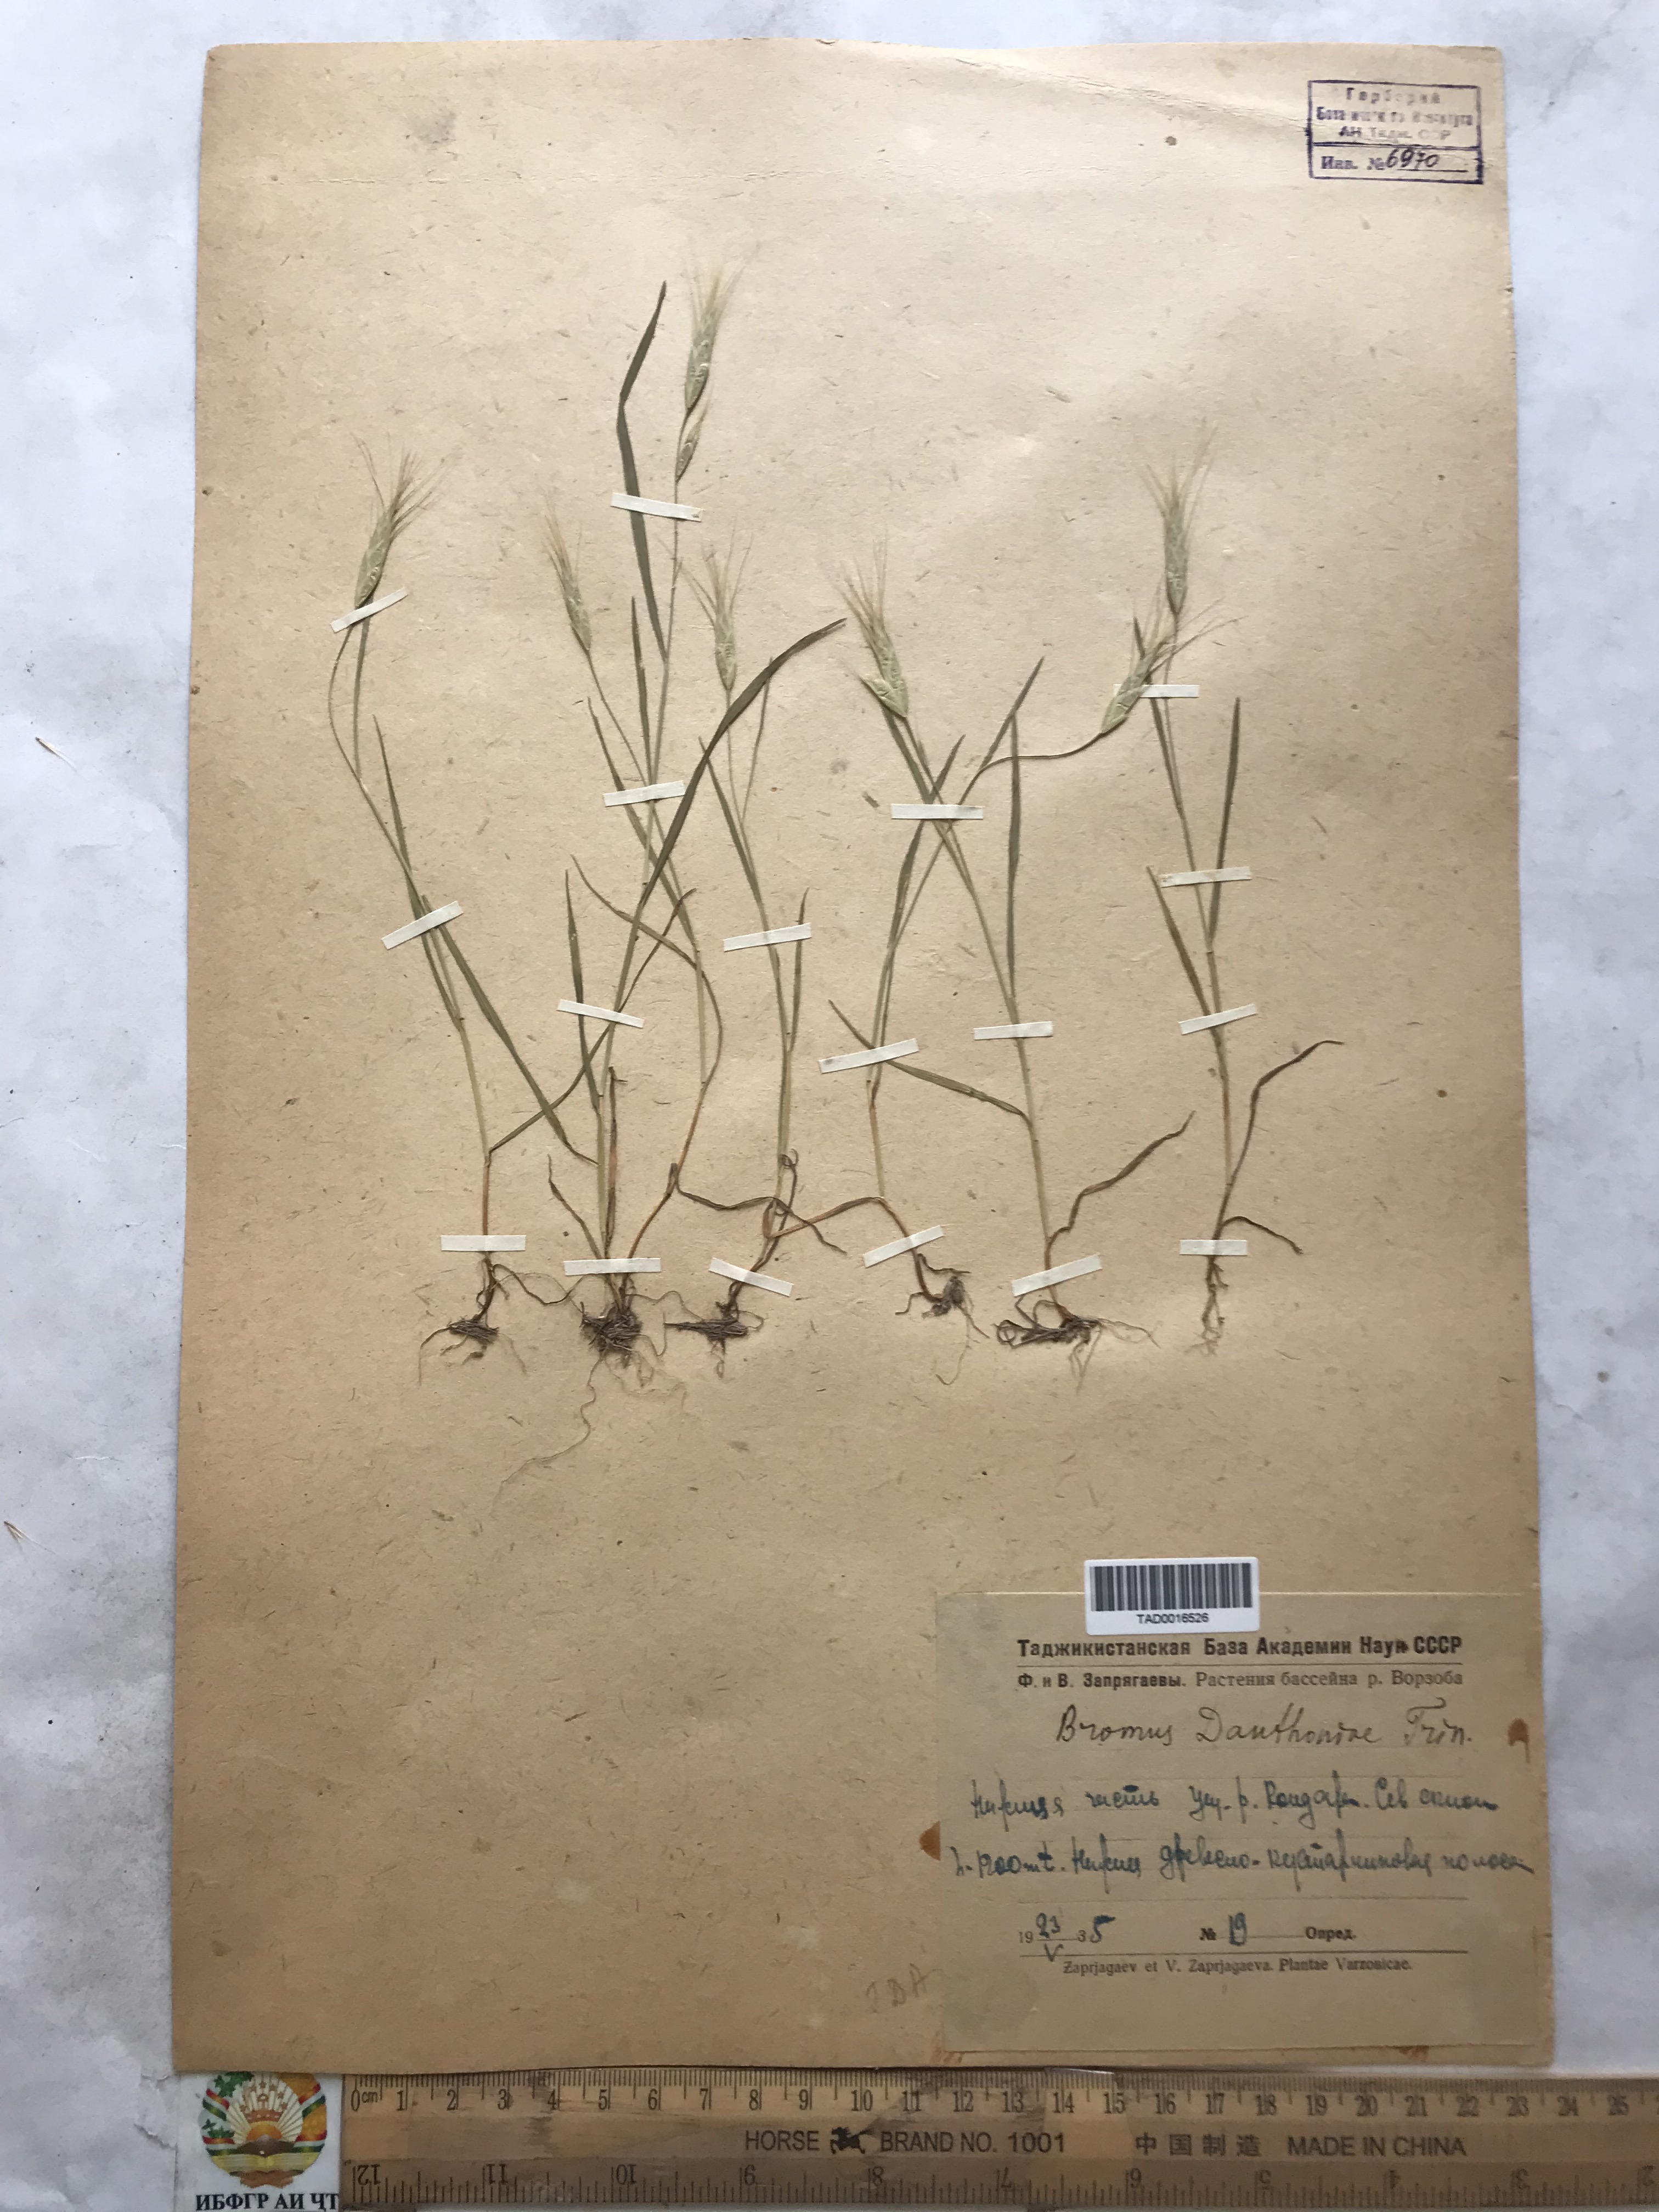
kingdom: Plantae
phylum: Tracheophyta
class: Liliopsida
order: Poales
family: Poaceae
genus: Bromus
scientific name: Bromus danthoniae
